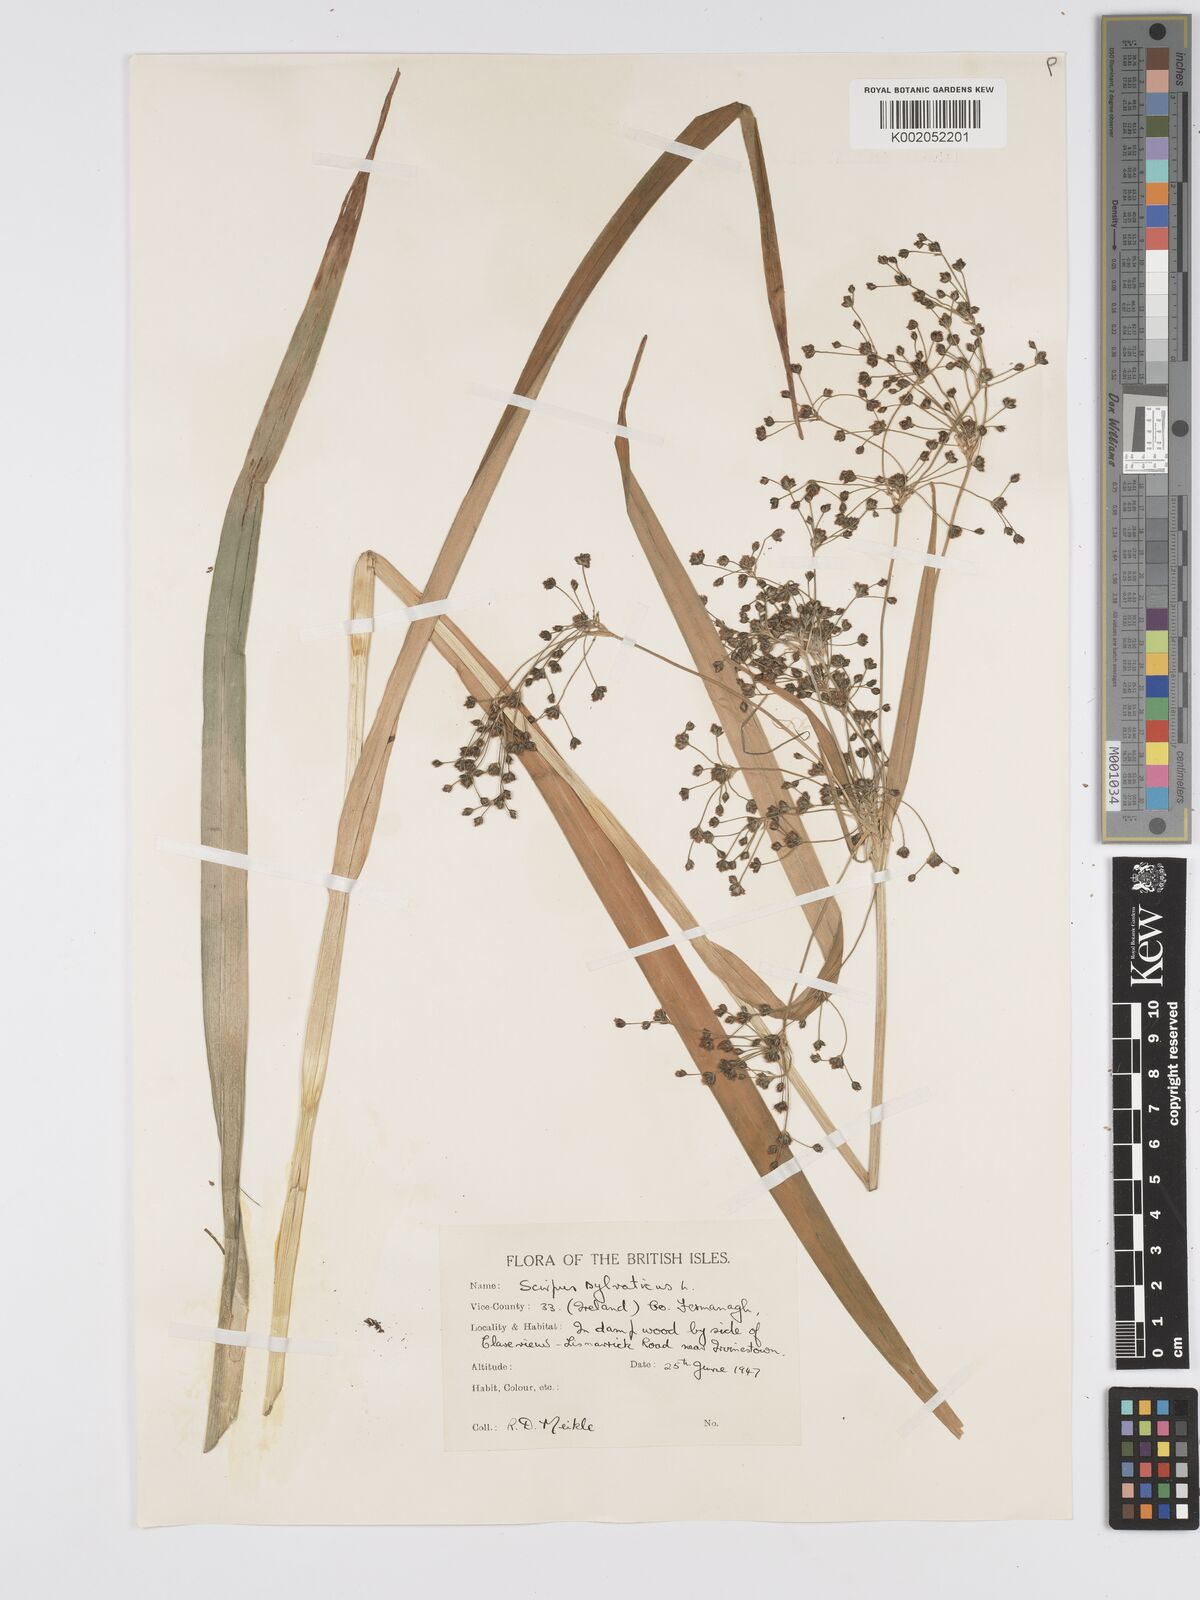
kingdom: Plantae
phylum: Tracheophyta
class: Liliopsida
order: Poales
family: Cyperaceae
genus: Scirpus
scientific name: Scirpus sylvaticus
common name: Wood club-rush
